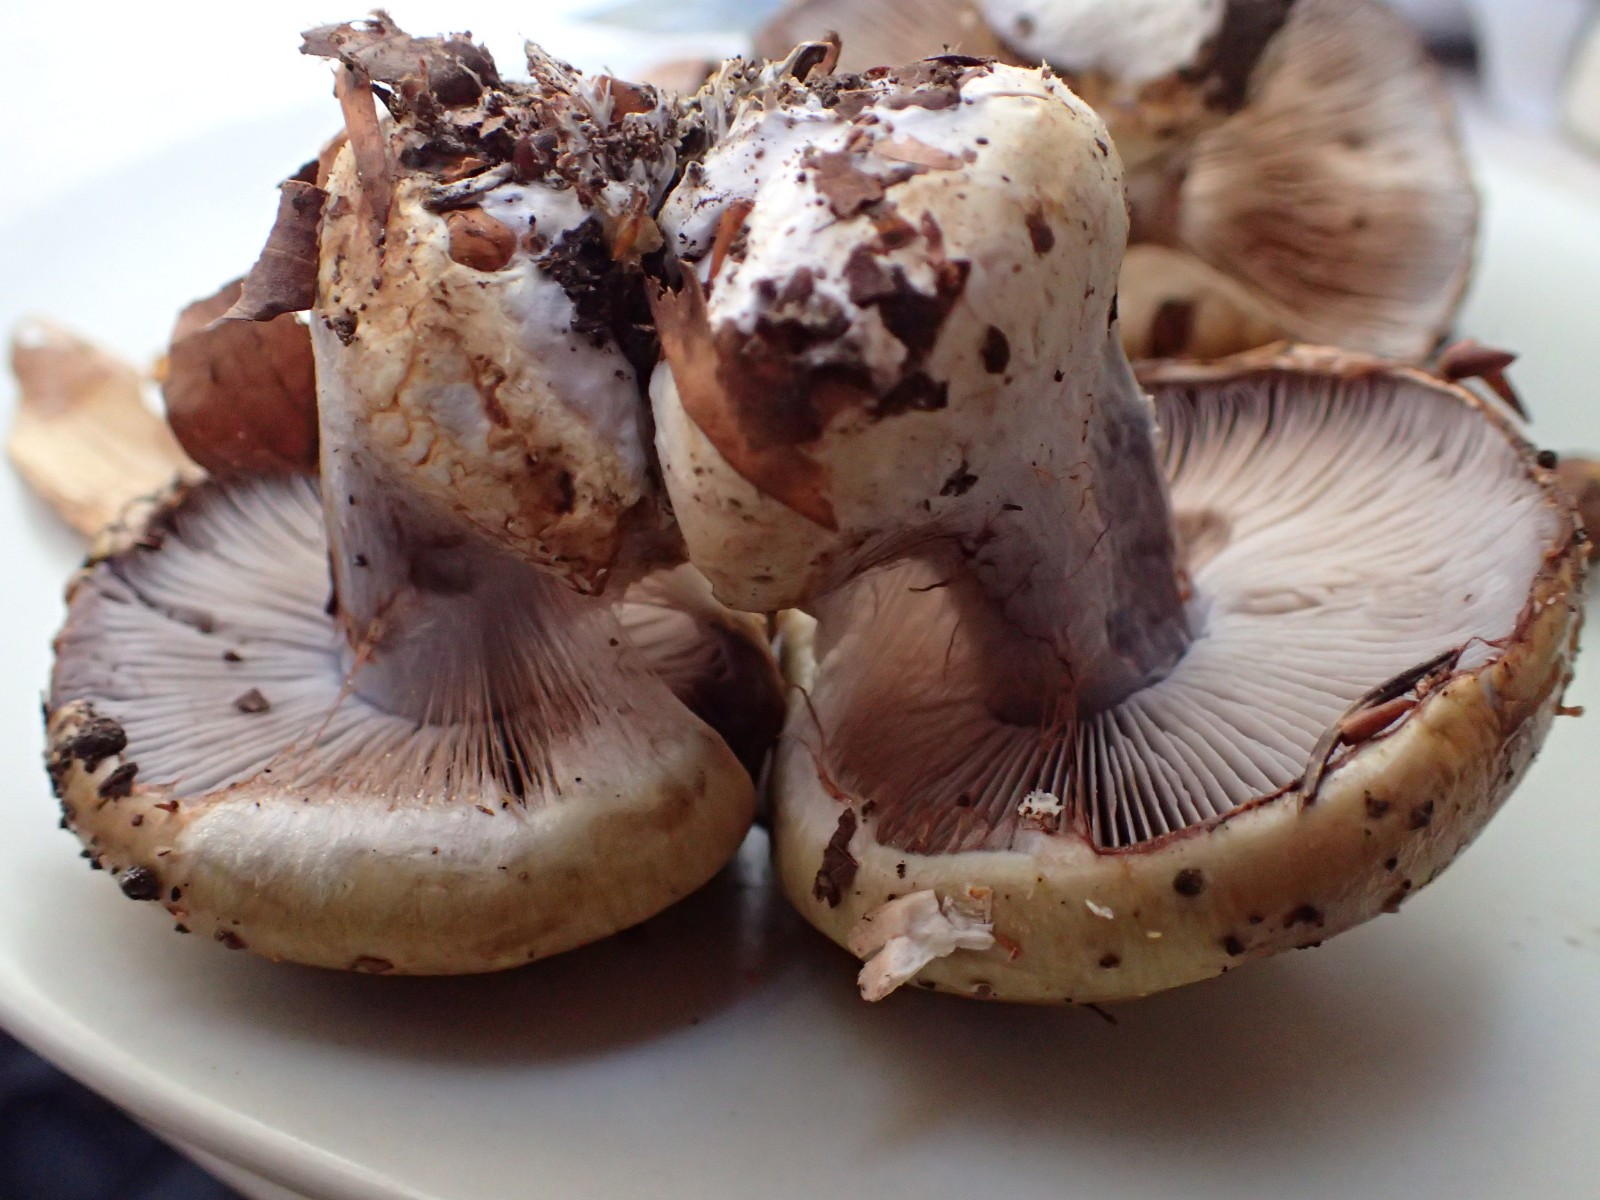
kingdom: Fungi
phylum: Basidiomycota
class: Agaricomycetes
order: Agaricales
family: Cortinariaceae
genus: Cortinarius
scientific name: Cortinarius anserinus
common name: bøge-slørhat
